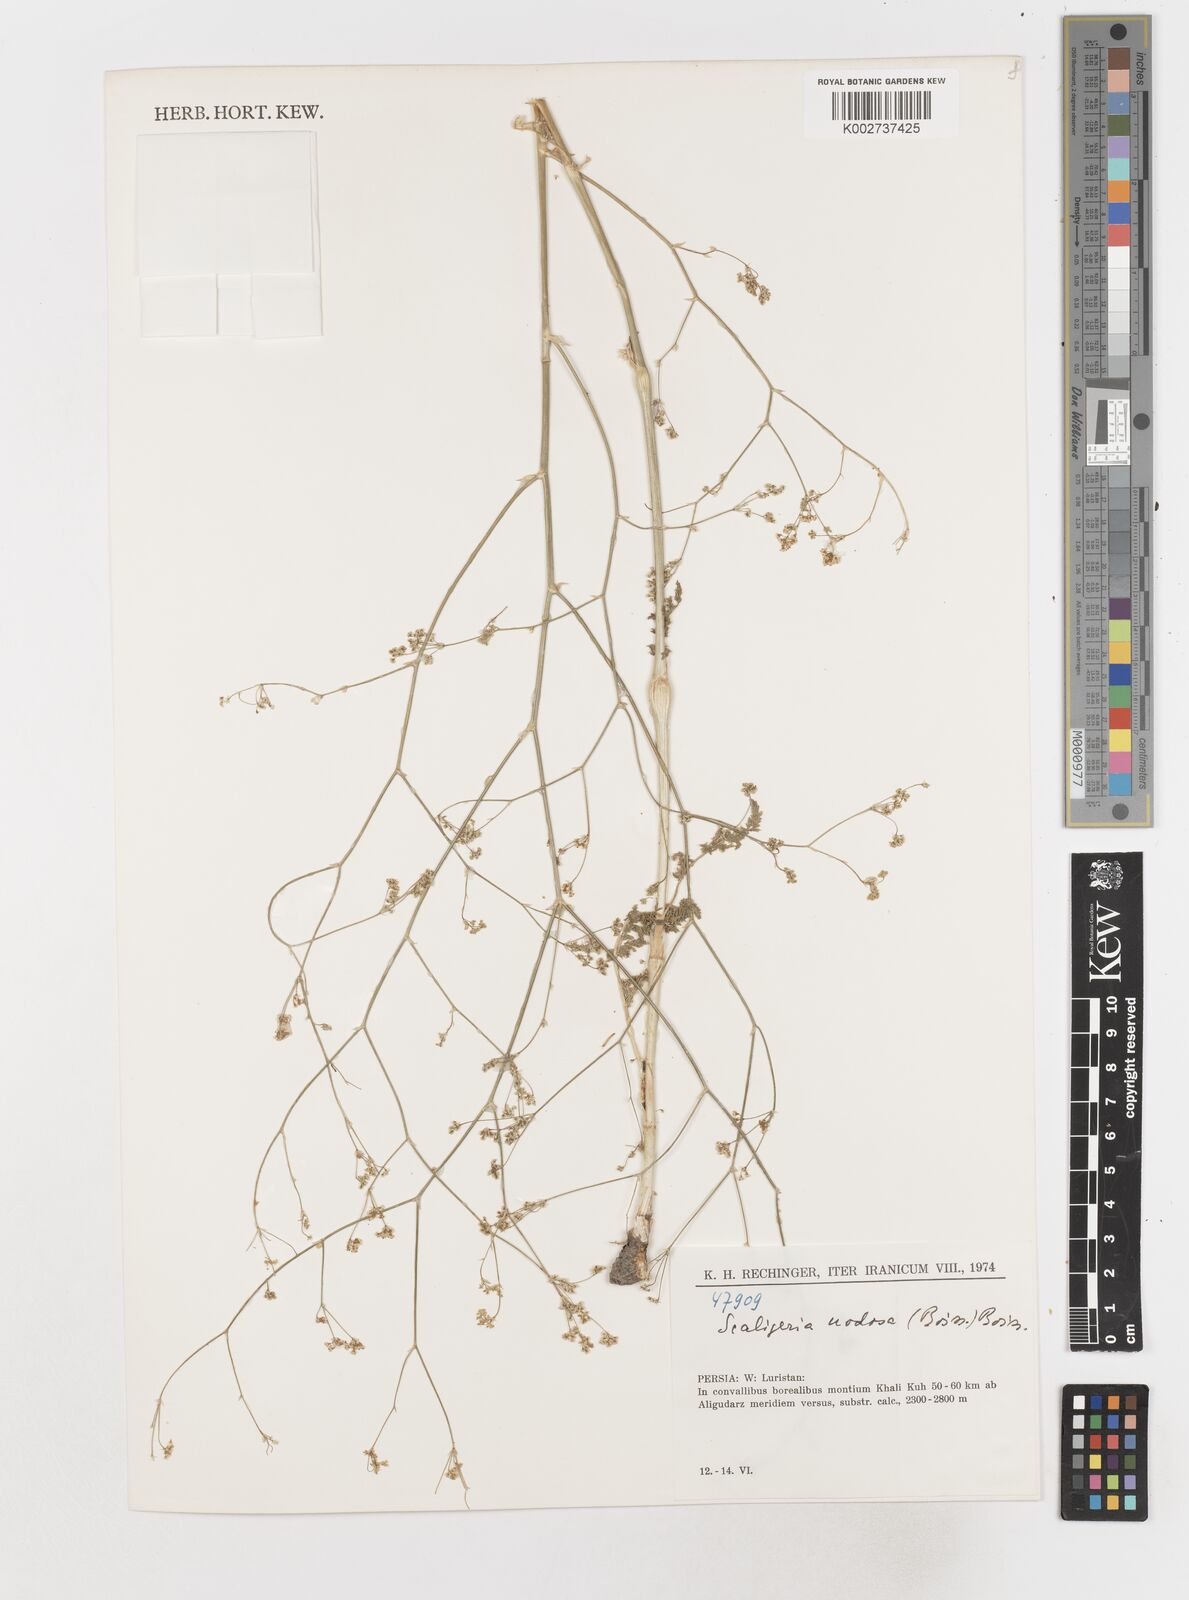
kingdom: Plantae
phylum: Tracheophyta
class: Magnoliopsida
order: Apiales
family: Apiaceae
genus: Elaeosticta
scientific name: Elaeosticta nodosa
